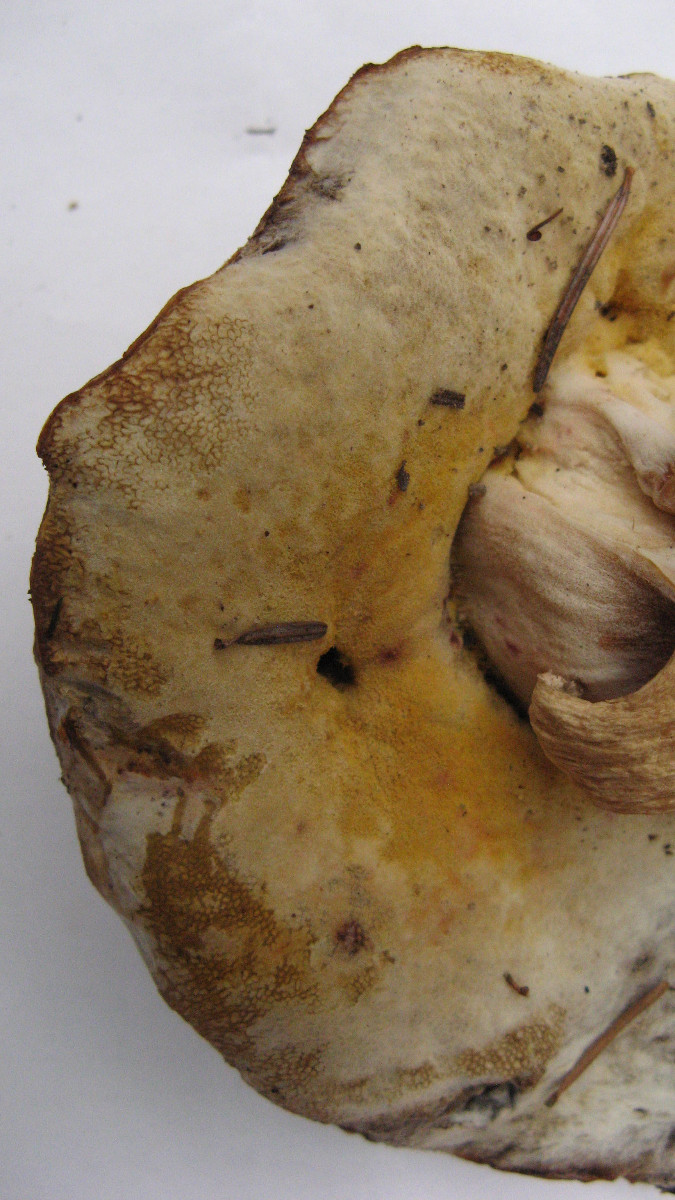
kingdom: Fungi
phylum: Ascomycota
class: Sordariomycetes
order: Hypocreales
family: Hypocreaceae
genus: Hypomyces
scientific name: Hypomyces chrysospermus
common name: gulskimmel-snylteskorpe
